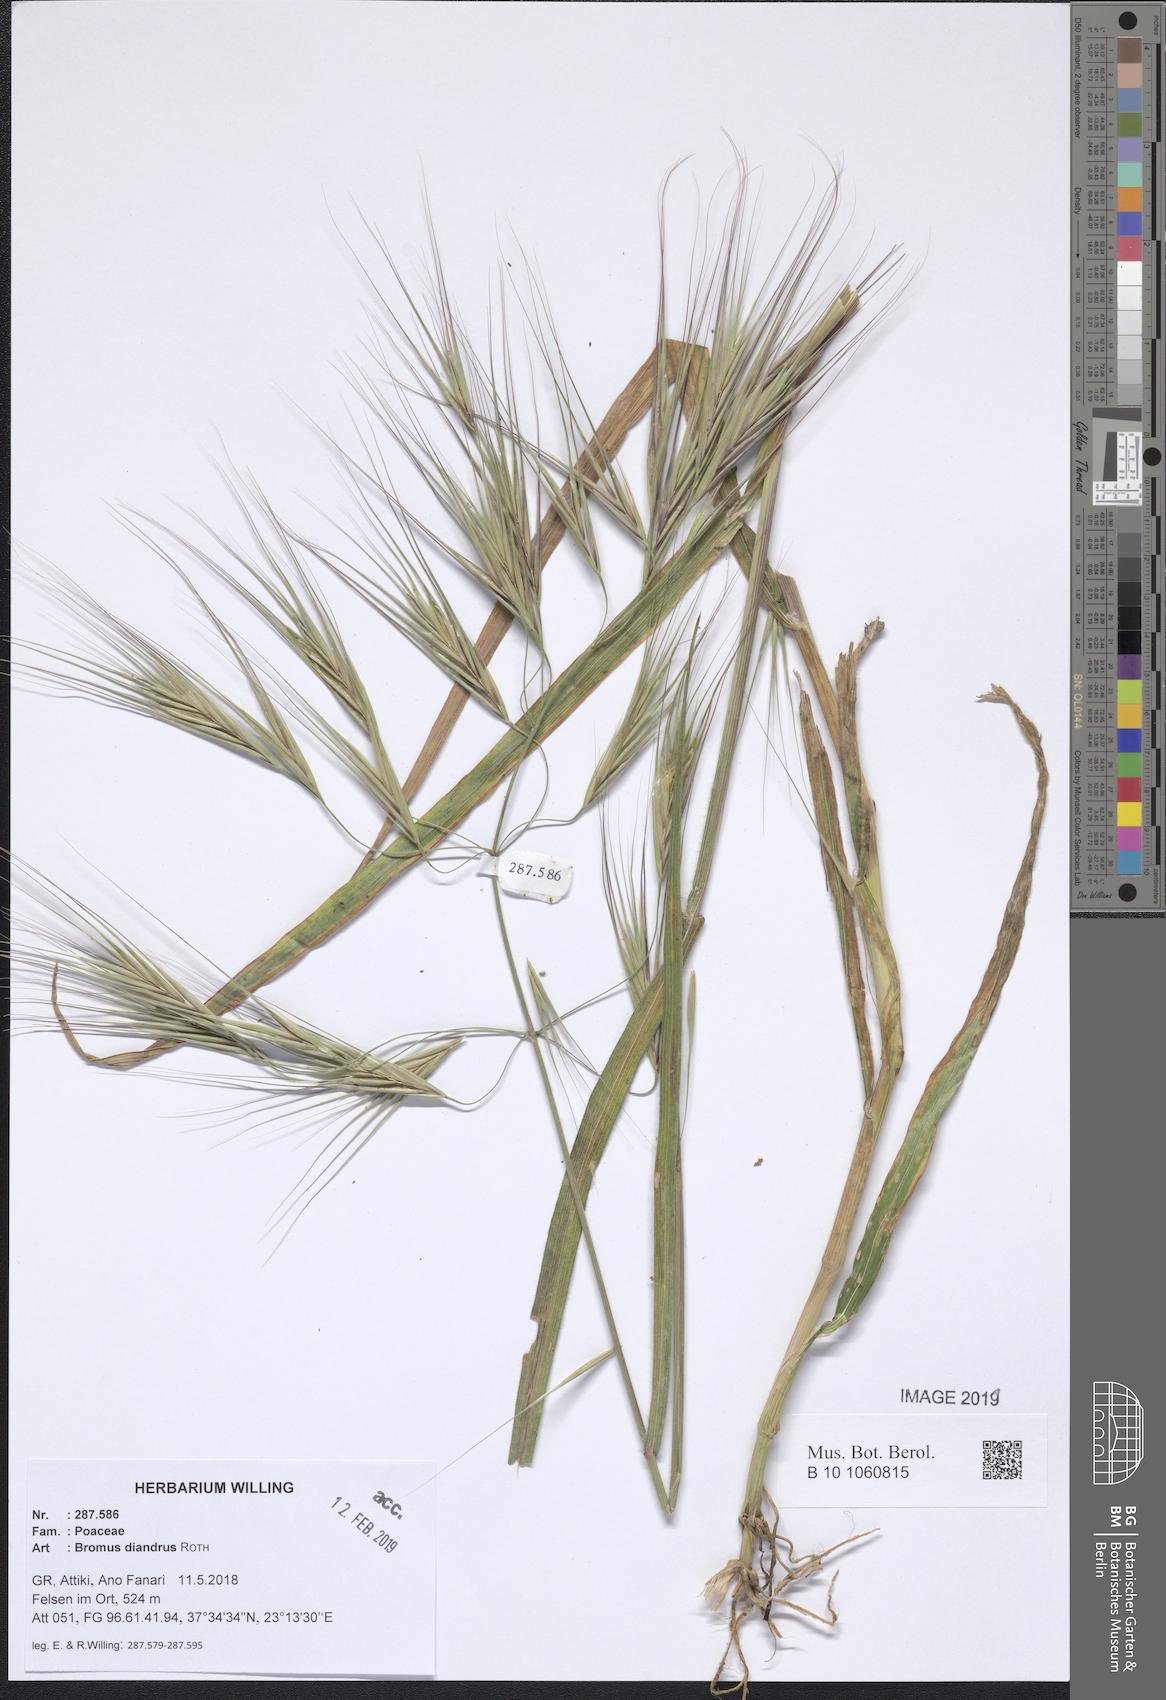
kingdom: Plantae
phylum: Tracheophyta
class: Liliopsida
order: Poales
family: Poaceae
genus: Bromus
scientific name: Bromus diandrus
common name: Ripgut brome
